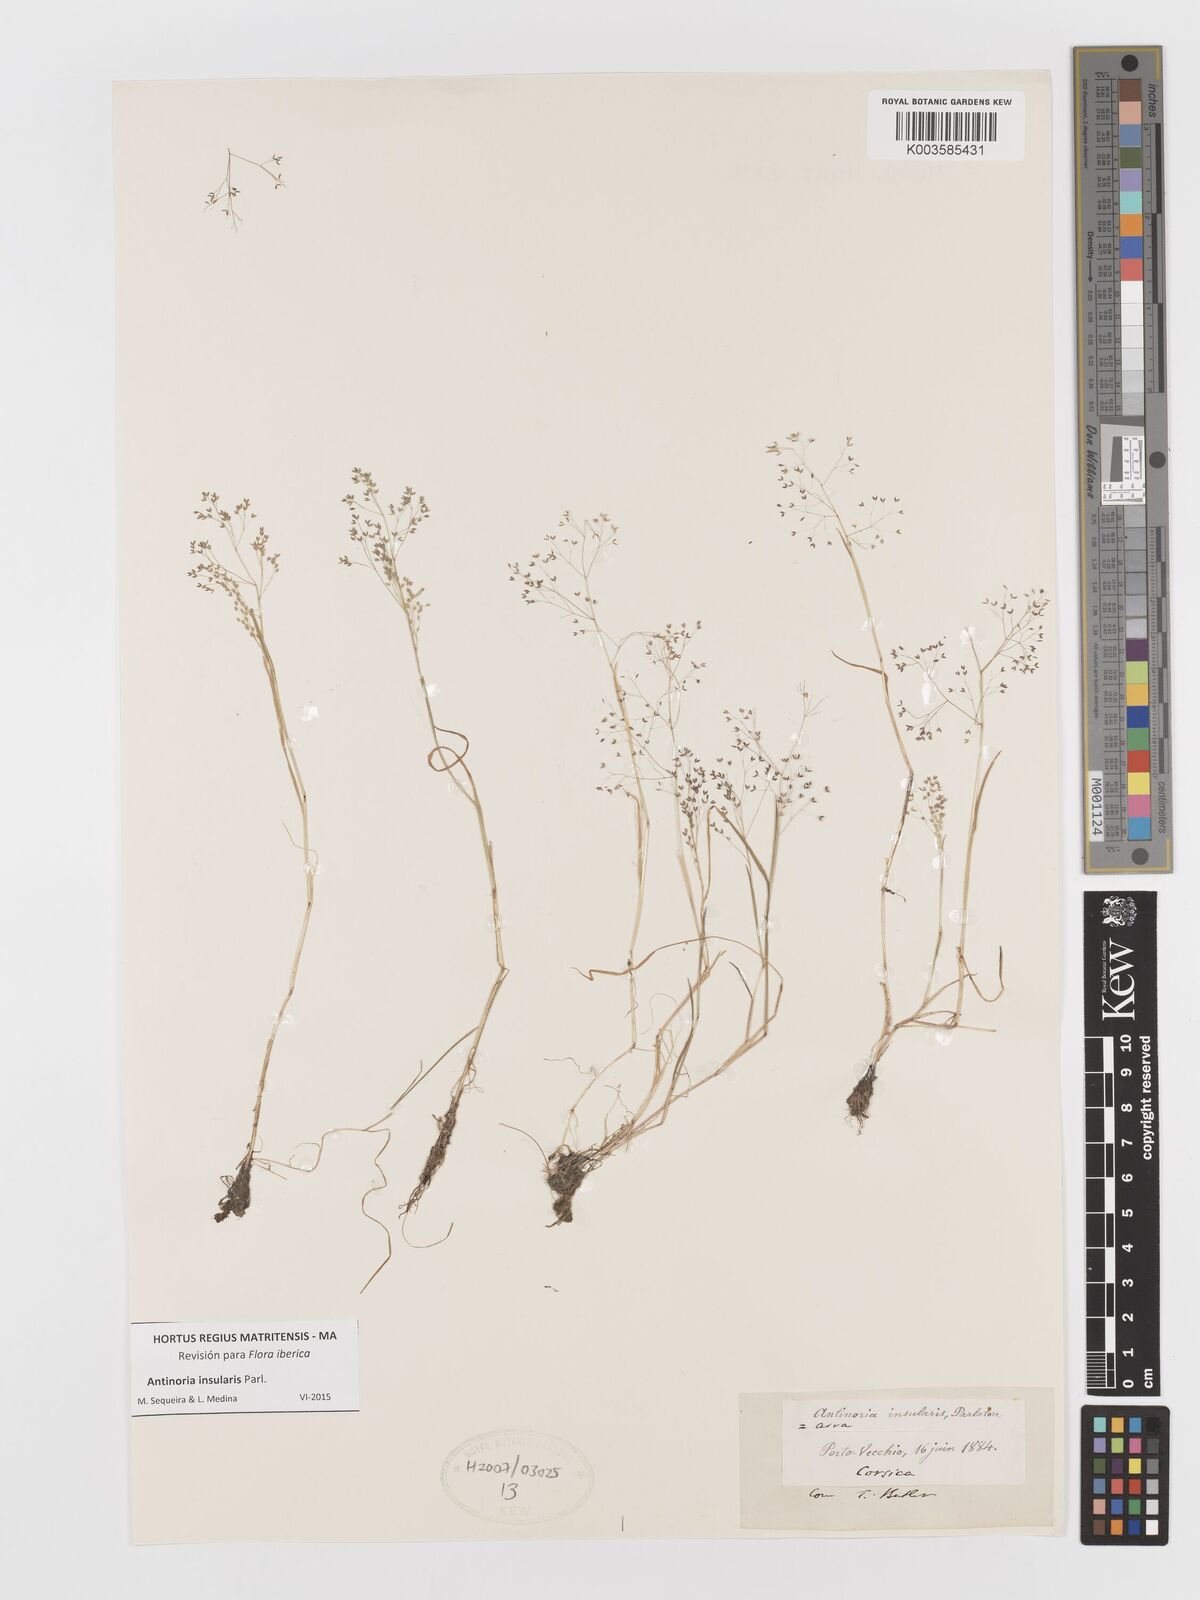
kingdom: Plantae
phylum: Tracheophyta
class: Liliopsida
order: Poales
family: Poaceae
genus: Antinoria
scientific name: Antinoria insularis
